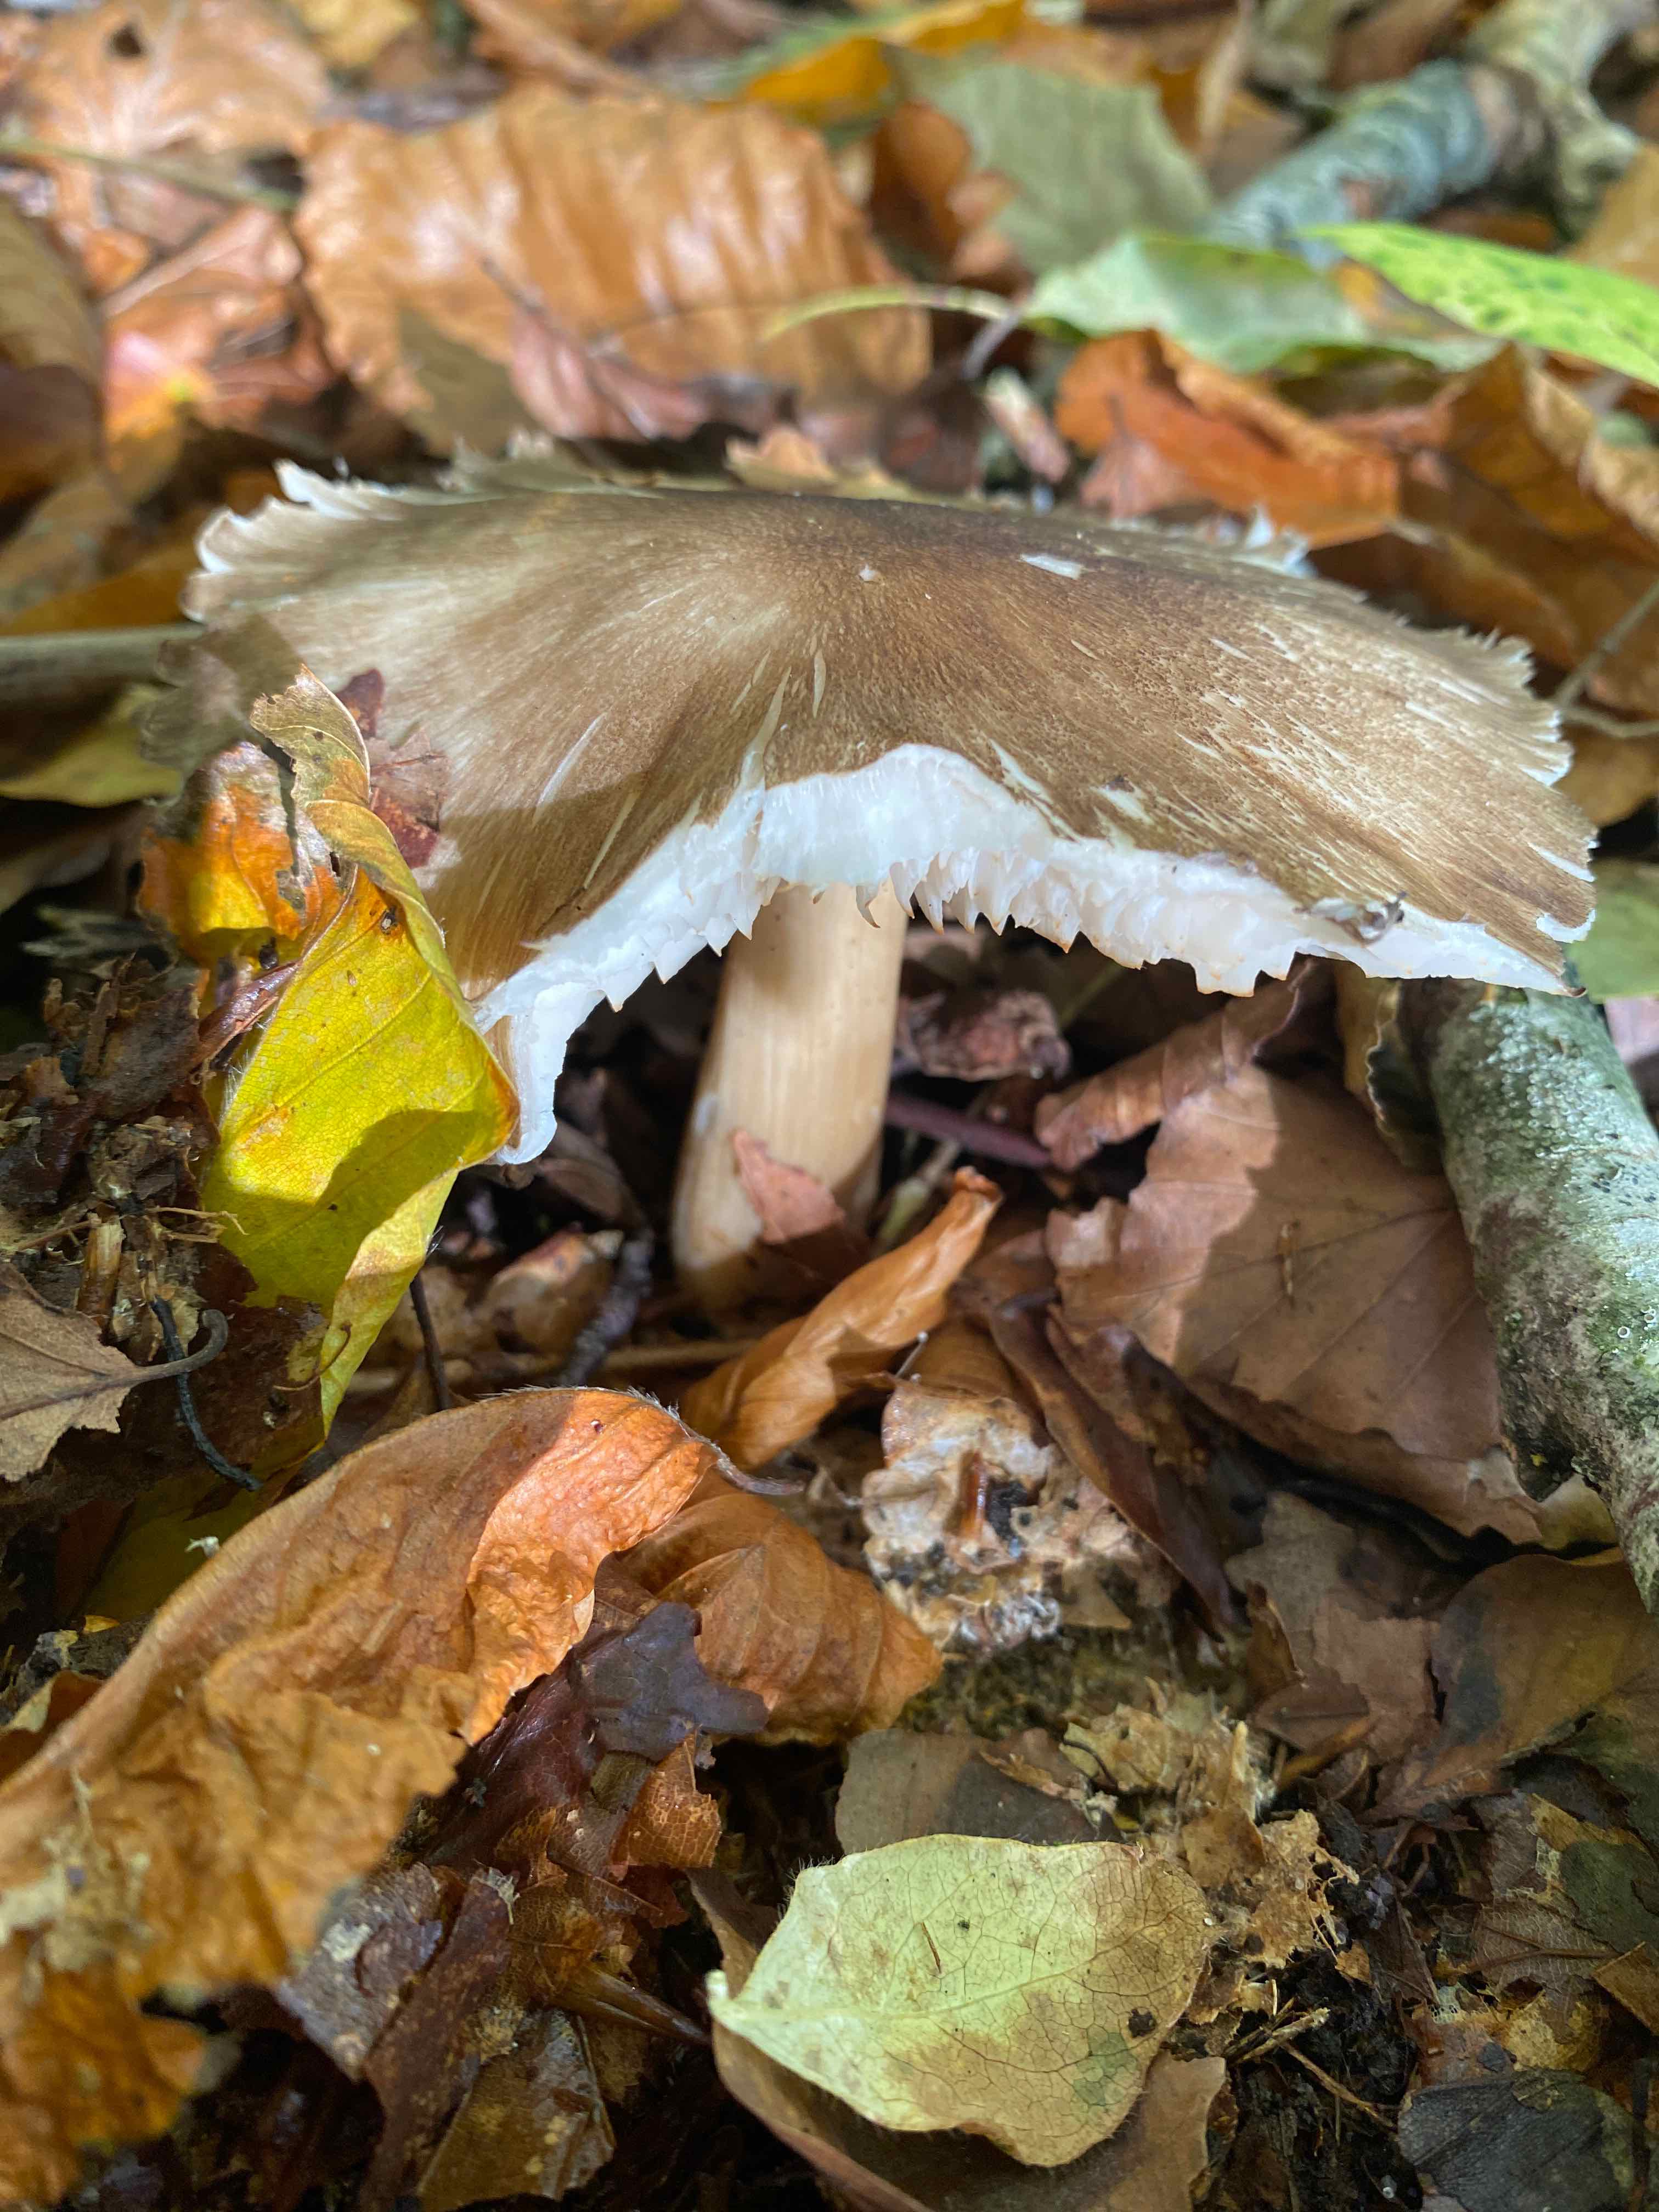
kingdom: Fungi
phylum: Basidiomycota
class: Agaricomycetes
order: Agaricales
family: Tricholomataceae
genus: Megacollybia
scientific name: Megacollybia platyphylla
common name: bredbladet væbnerhat
